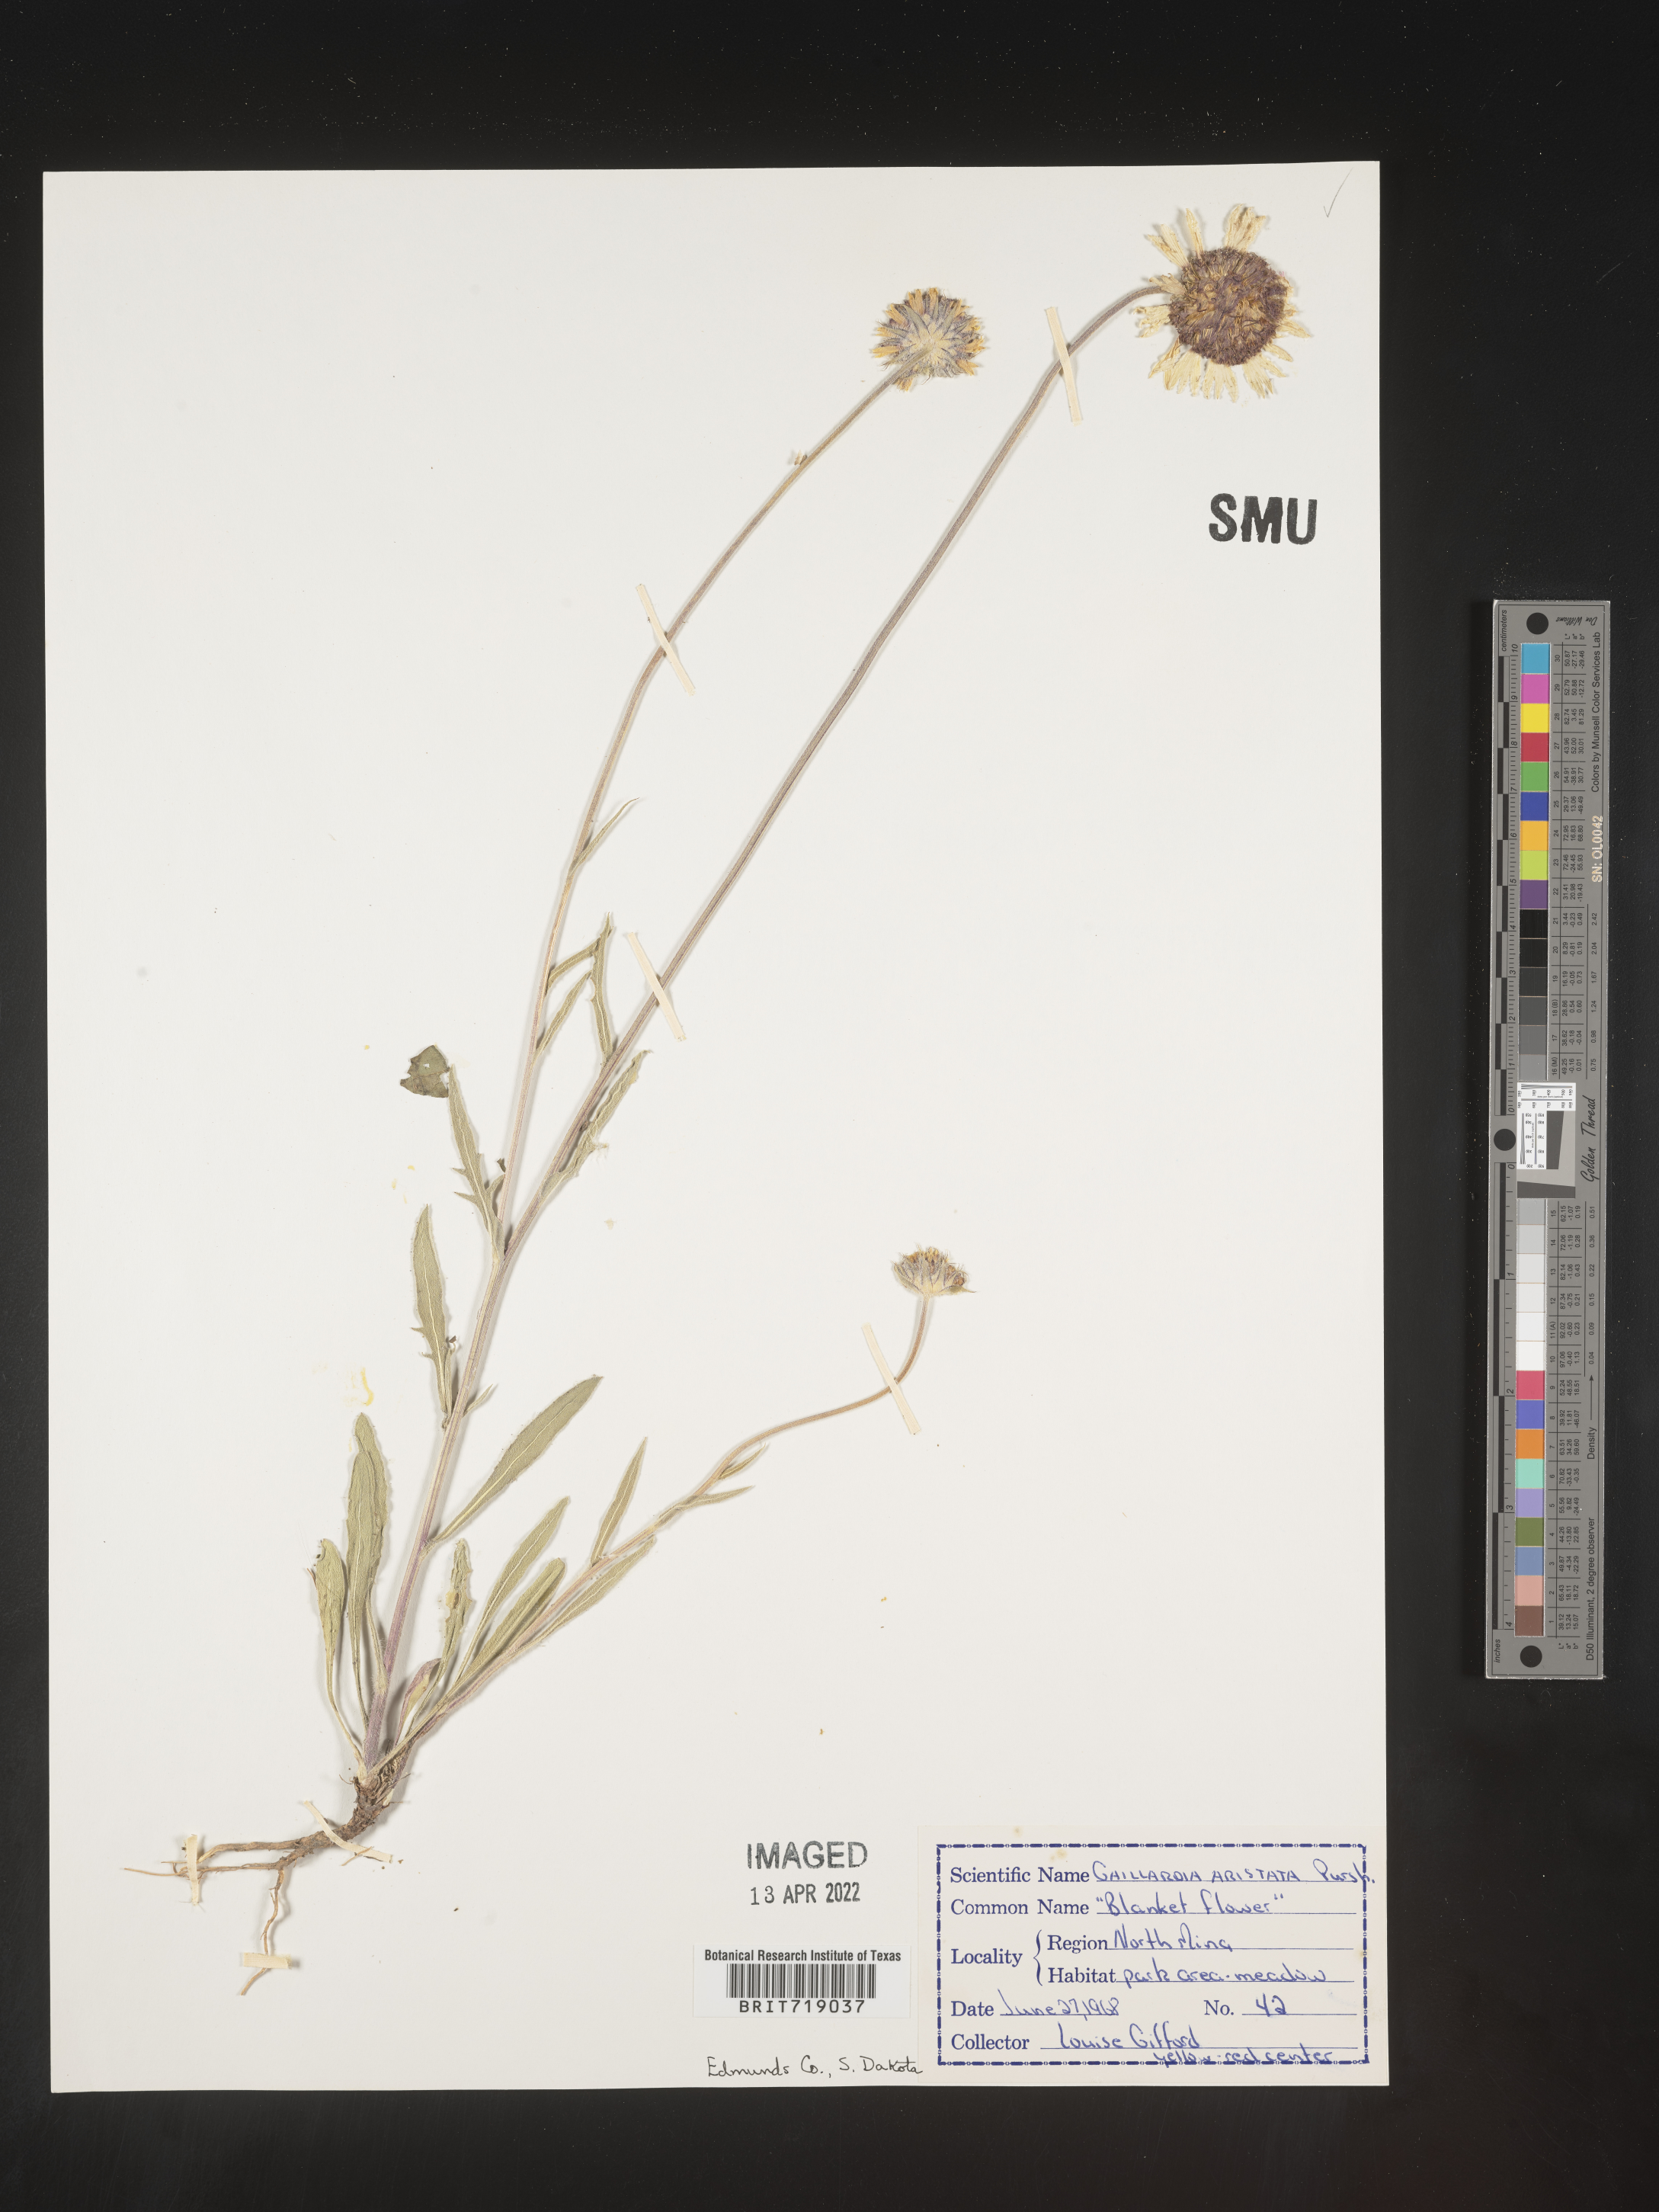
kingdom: Plantae
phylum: Tracheophyta
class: Magnoliopsida
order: Asterales
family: Asteraceae
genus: Gaillardia
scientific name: Gaillardia aristata
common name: Blanket-flower
